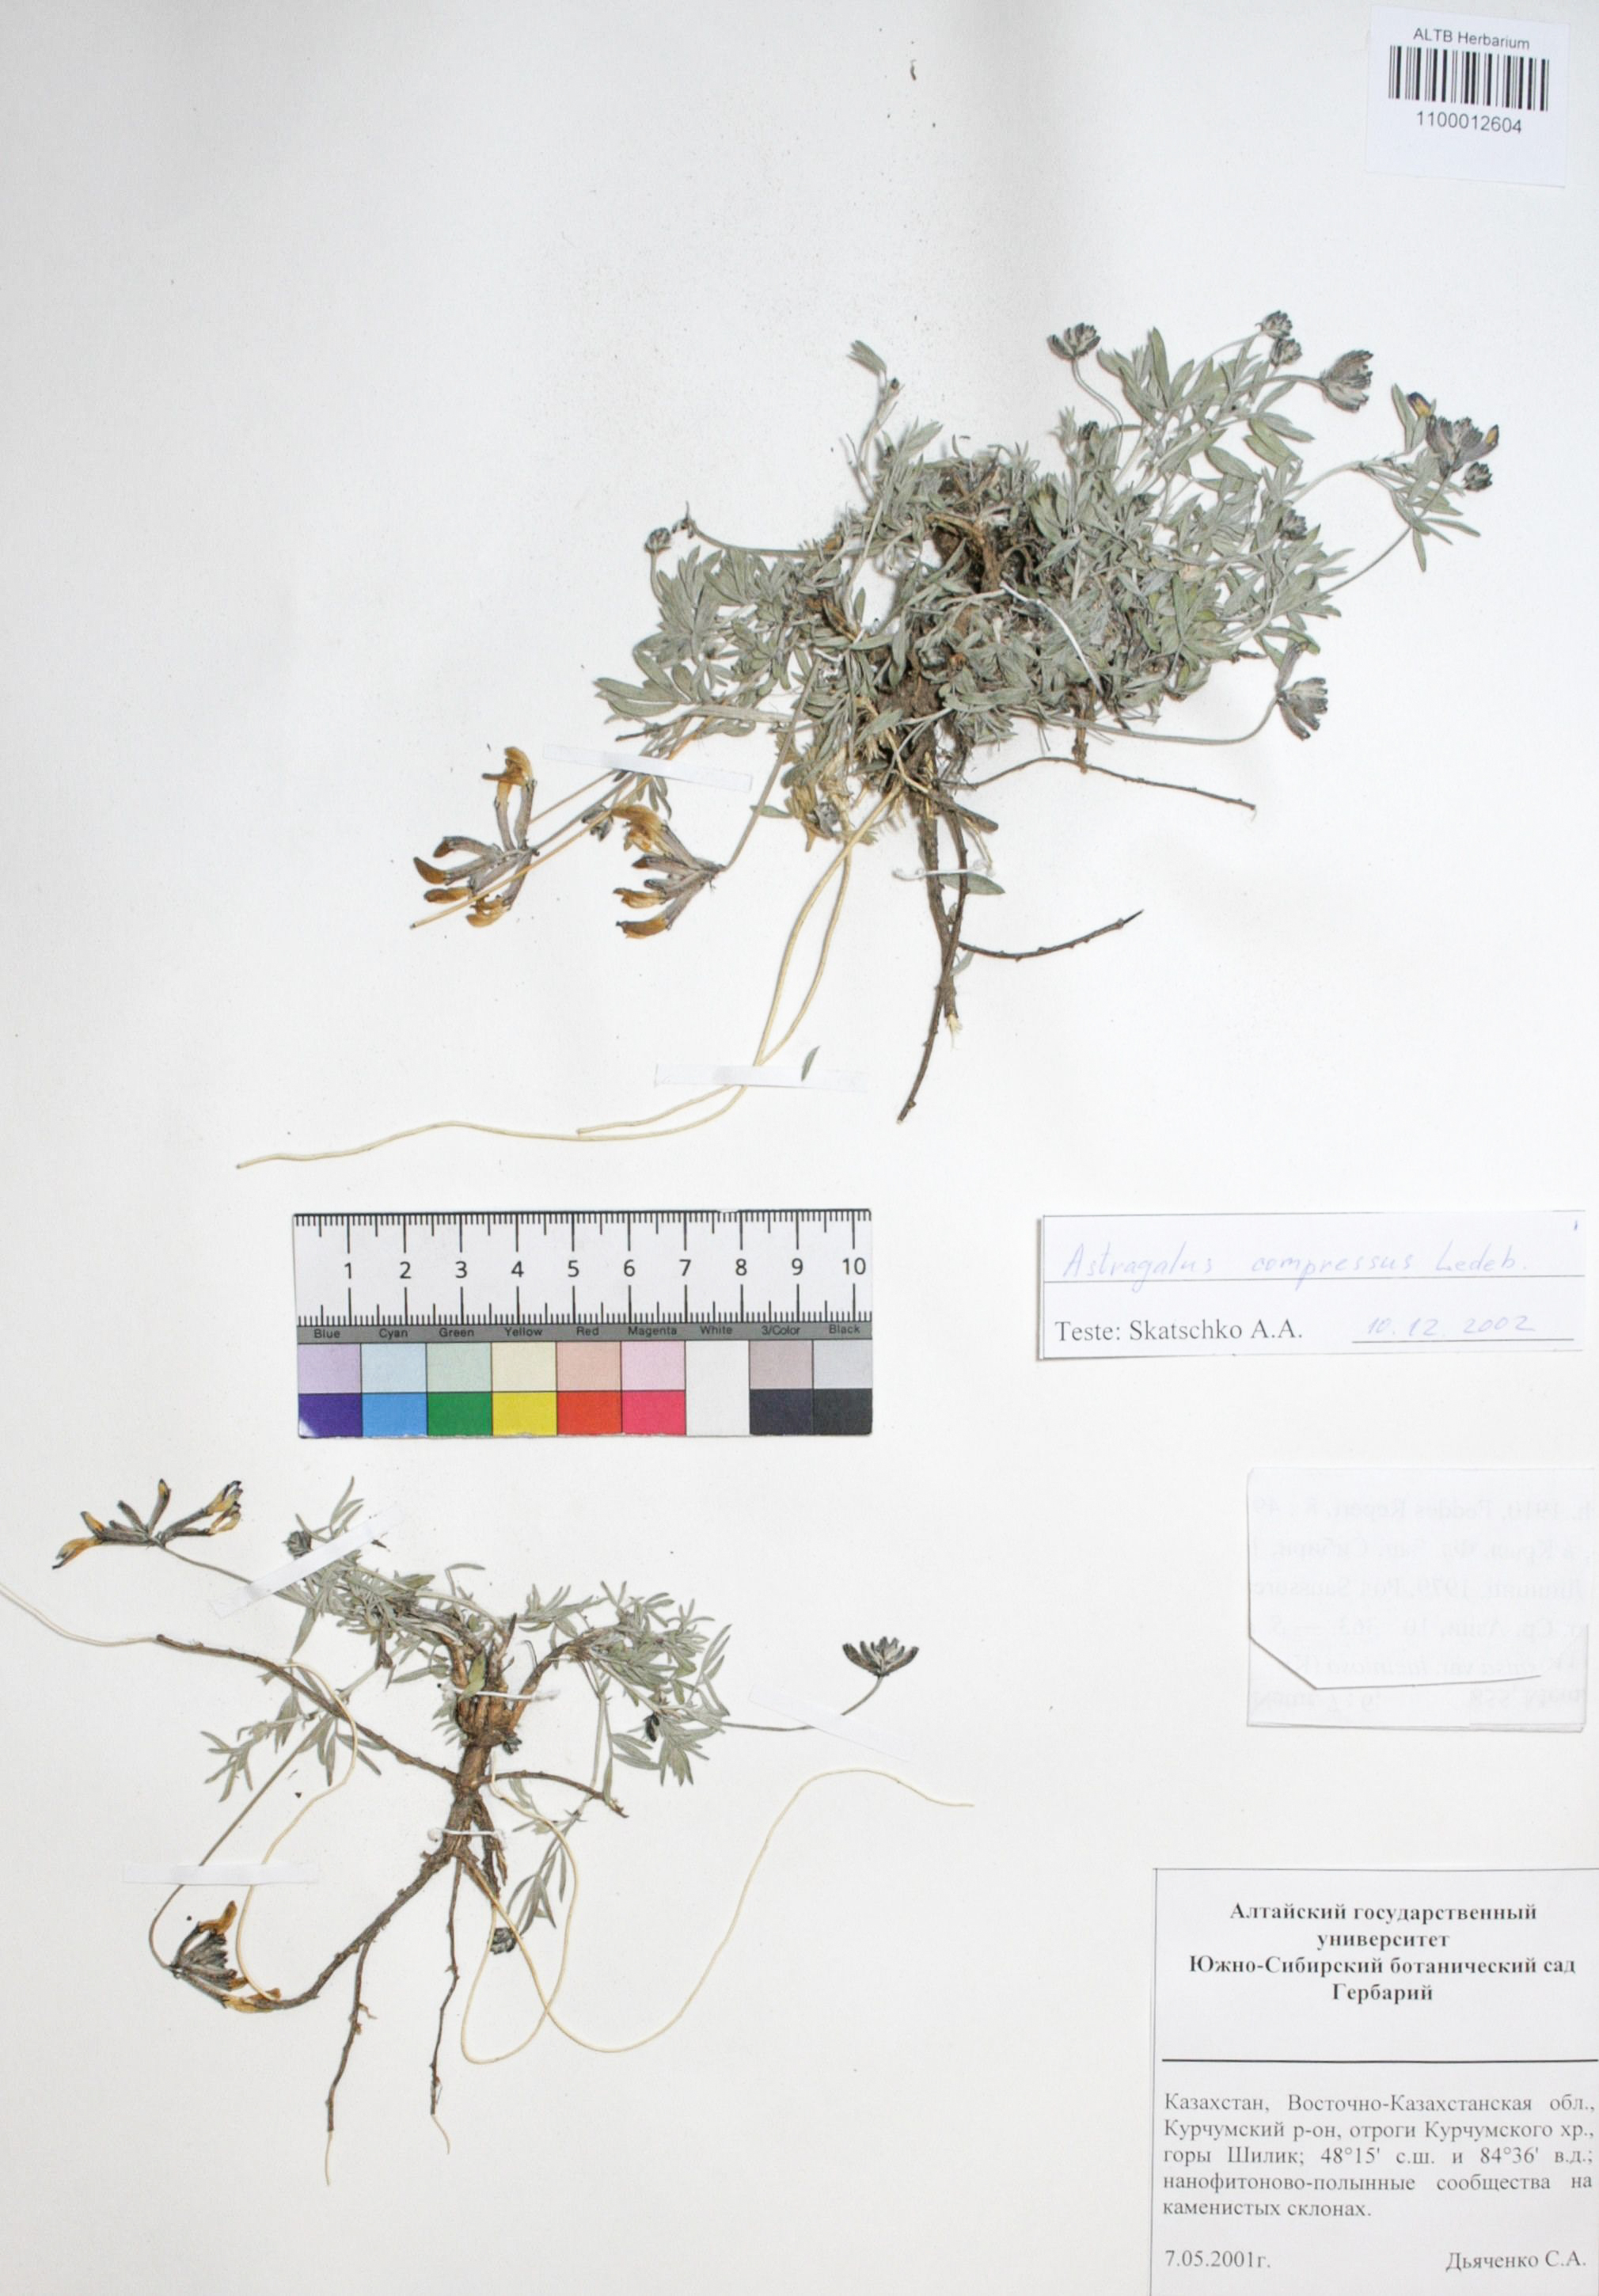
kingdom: Plantae
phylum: Tracheophyta
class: Magnoliopsida
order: Fabales
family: Fabaceae
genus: Astragalus
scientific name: Astragalus compressus
